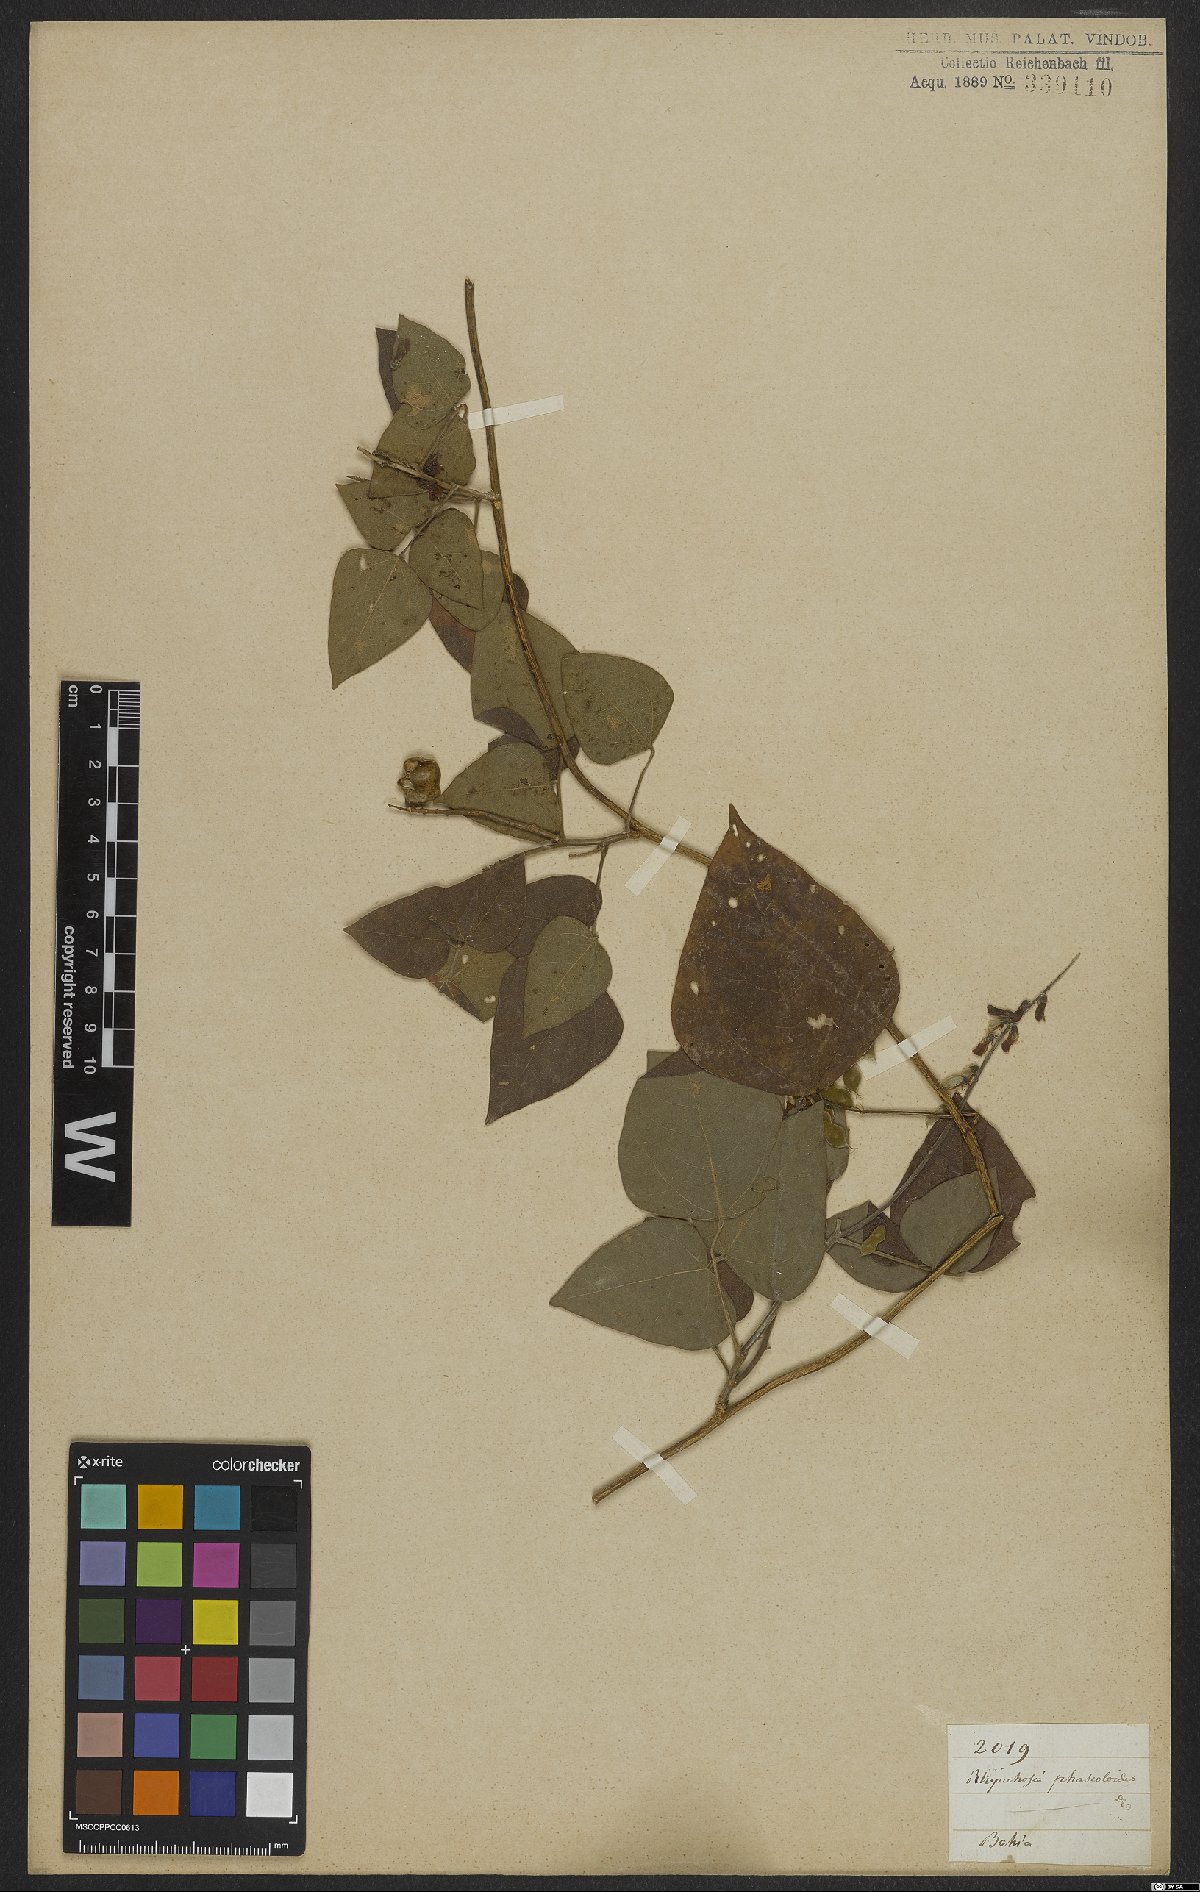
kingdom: Plantae
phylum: Tracheophyta
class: Magnoliopsida
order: Fabales
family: Fabaceae
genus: Rhynchosia
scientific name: Rhynchosia phaseoloides
